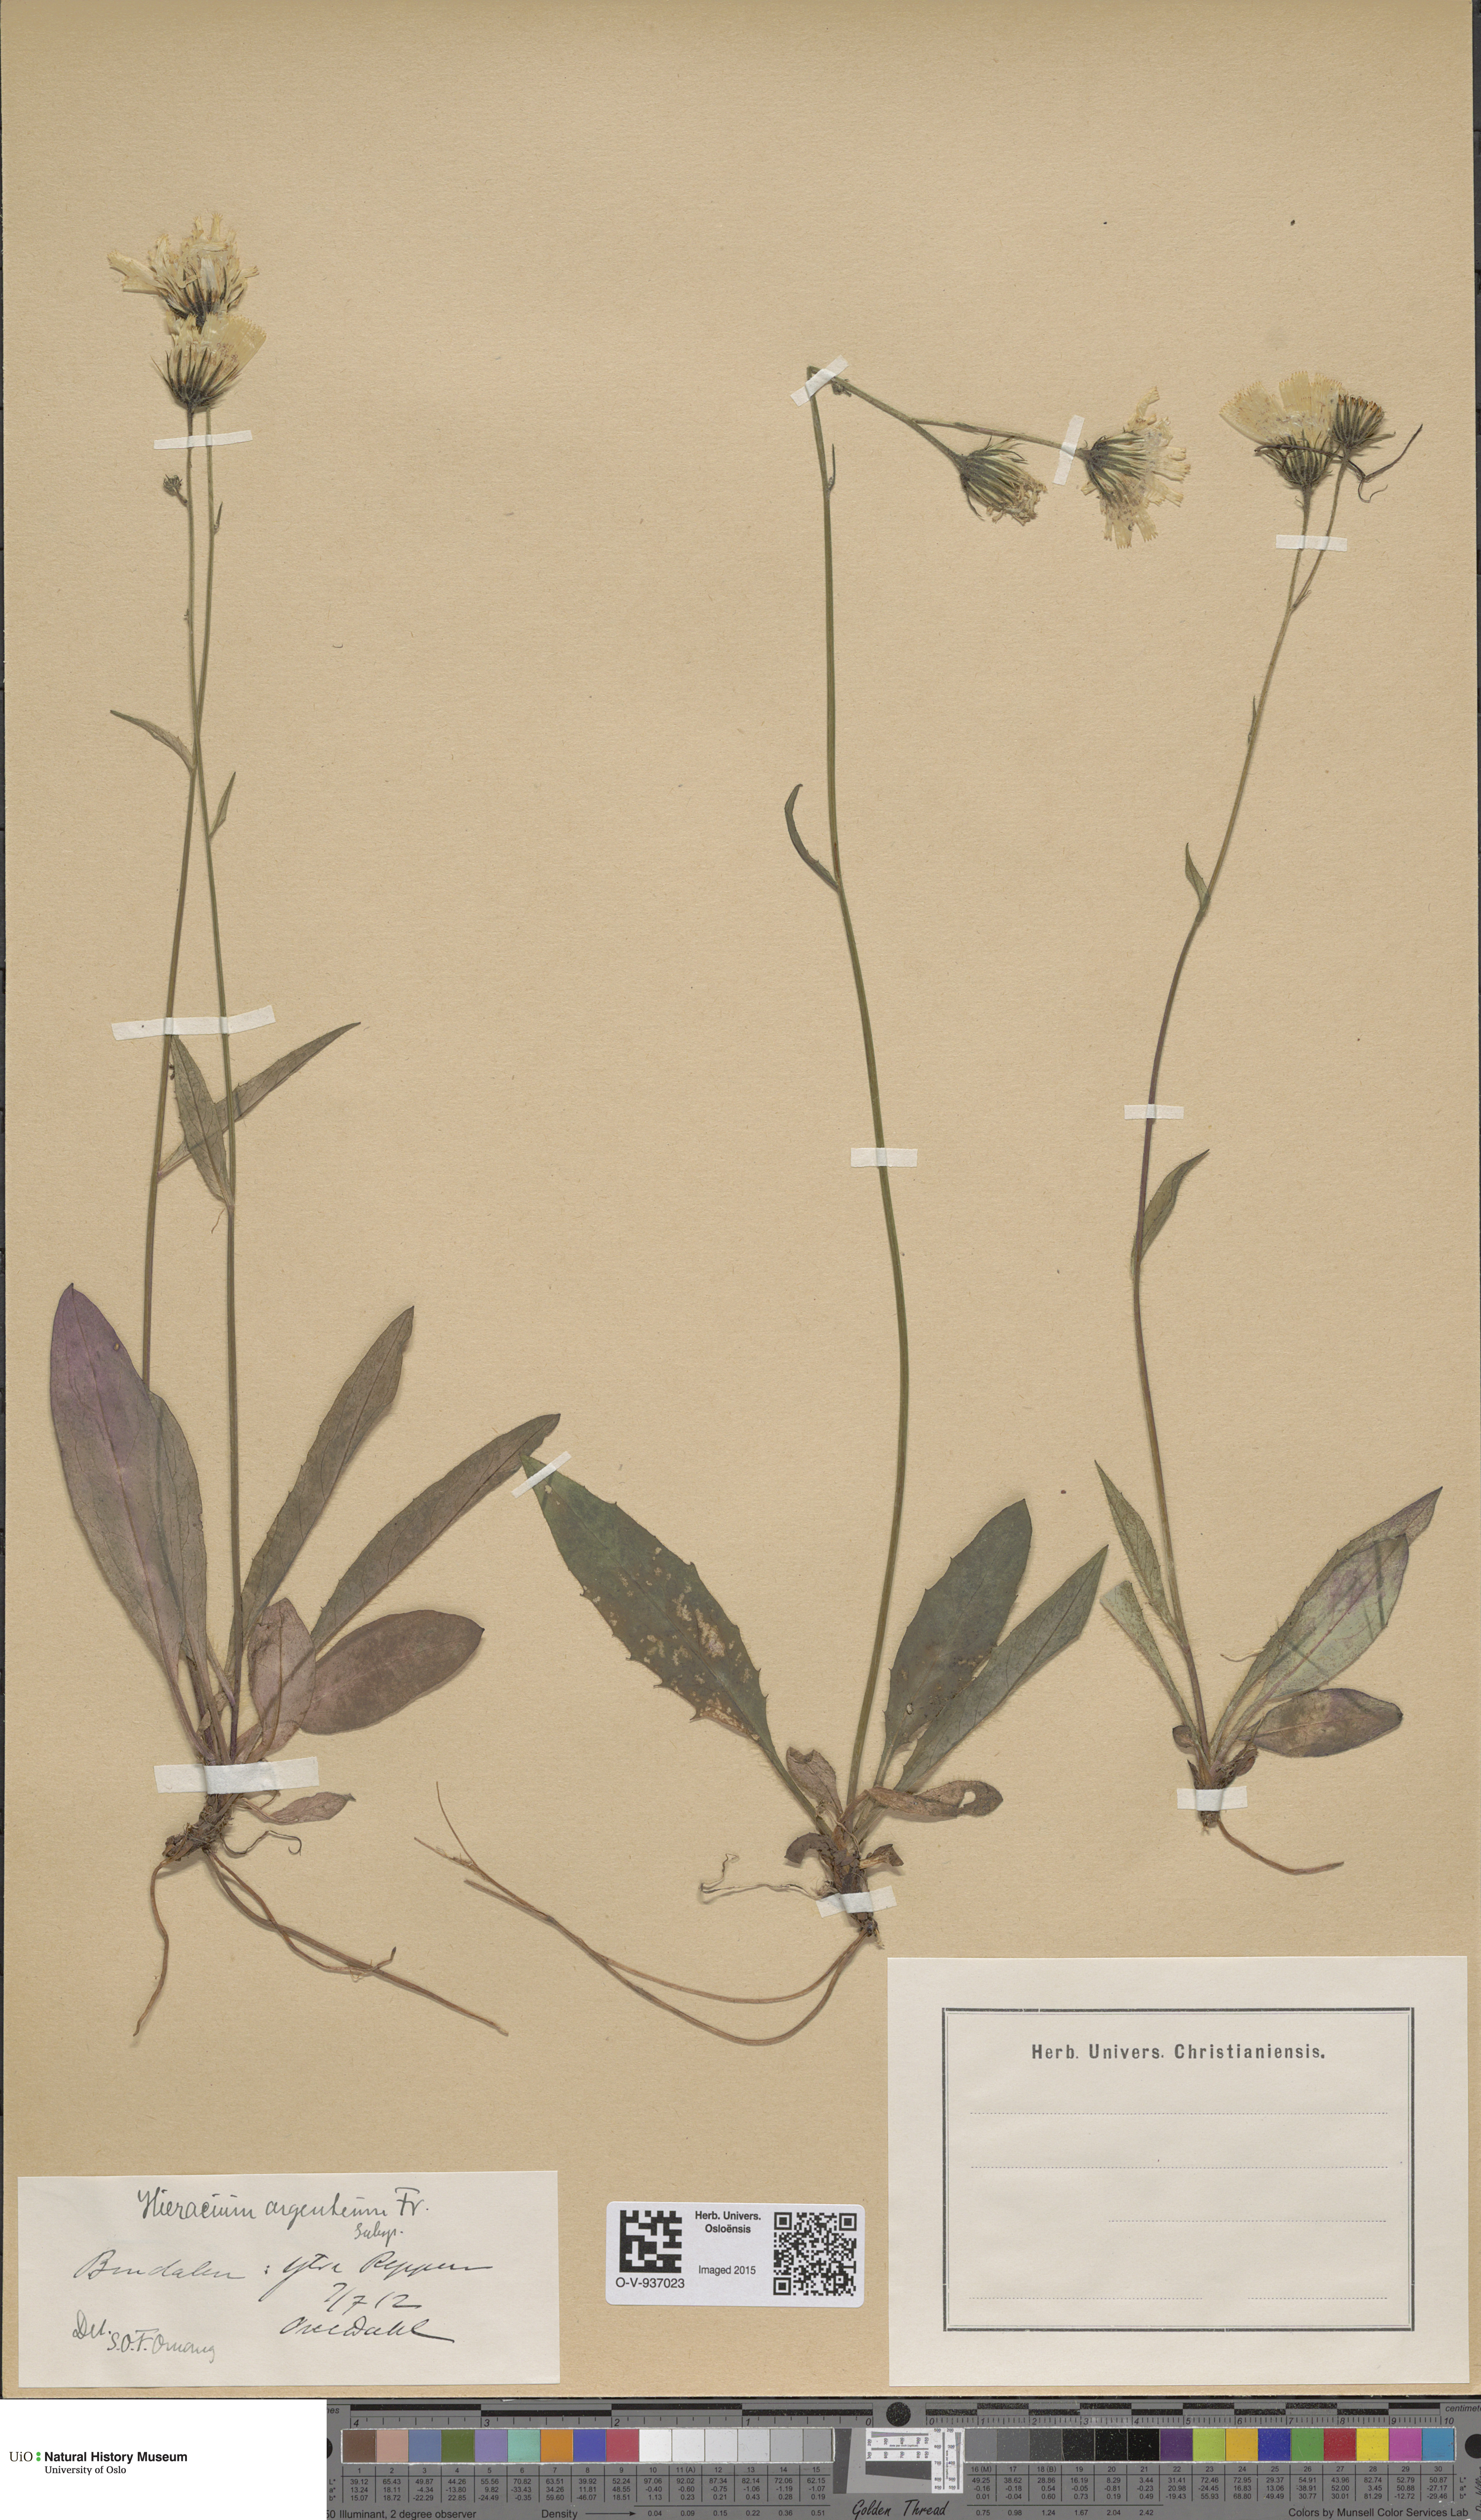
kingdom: Plantae
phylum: Tracheophyta
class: Magnoliopsida
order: Asterales
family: Asteraceae
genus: Hieracium
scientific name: Hieracium argenteum
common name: Silver hawkweed
